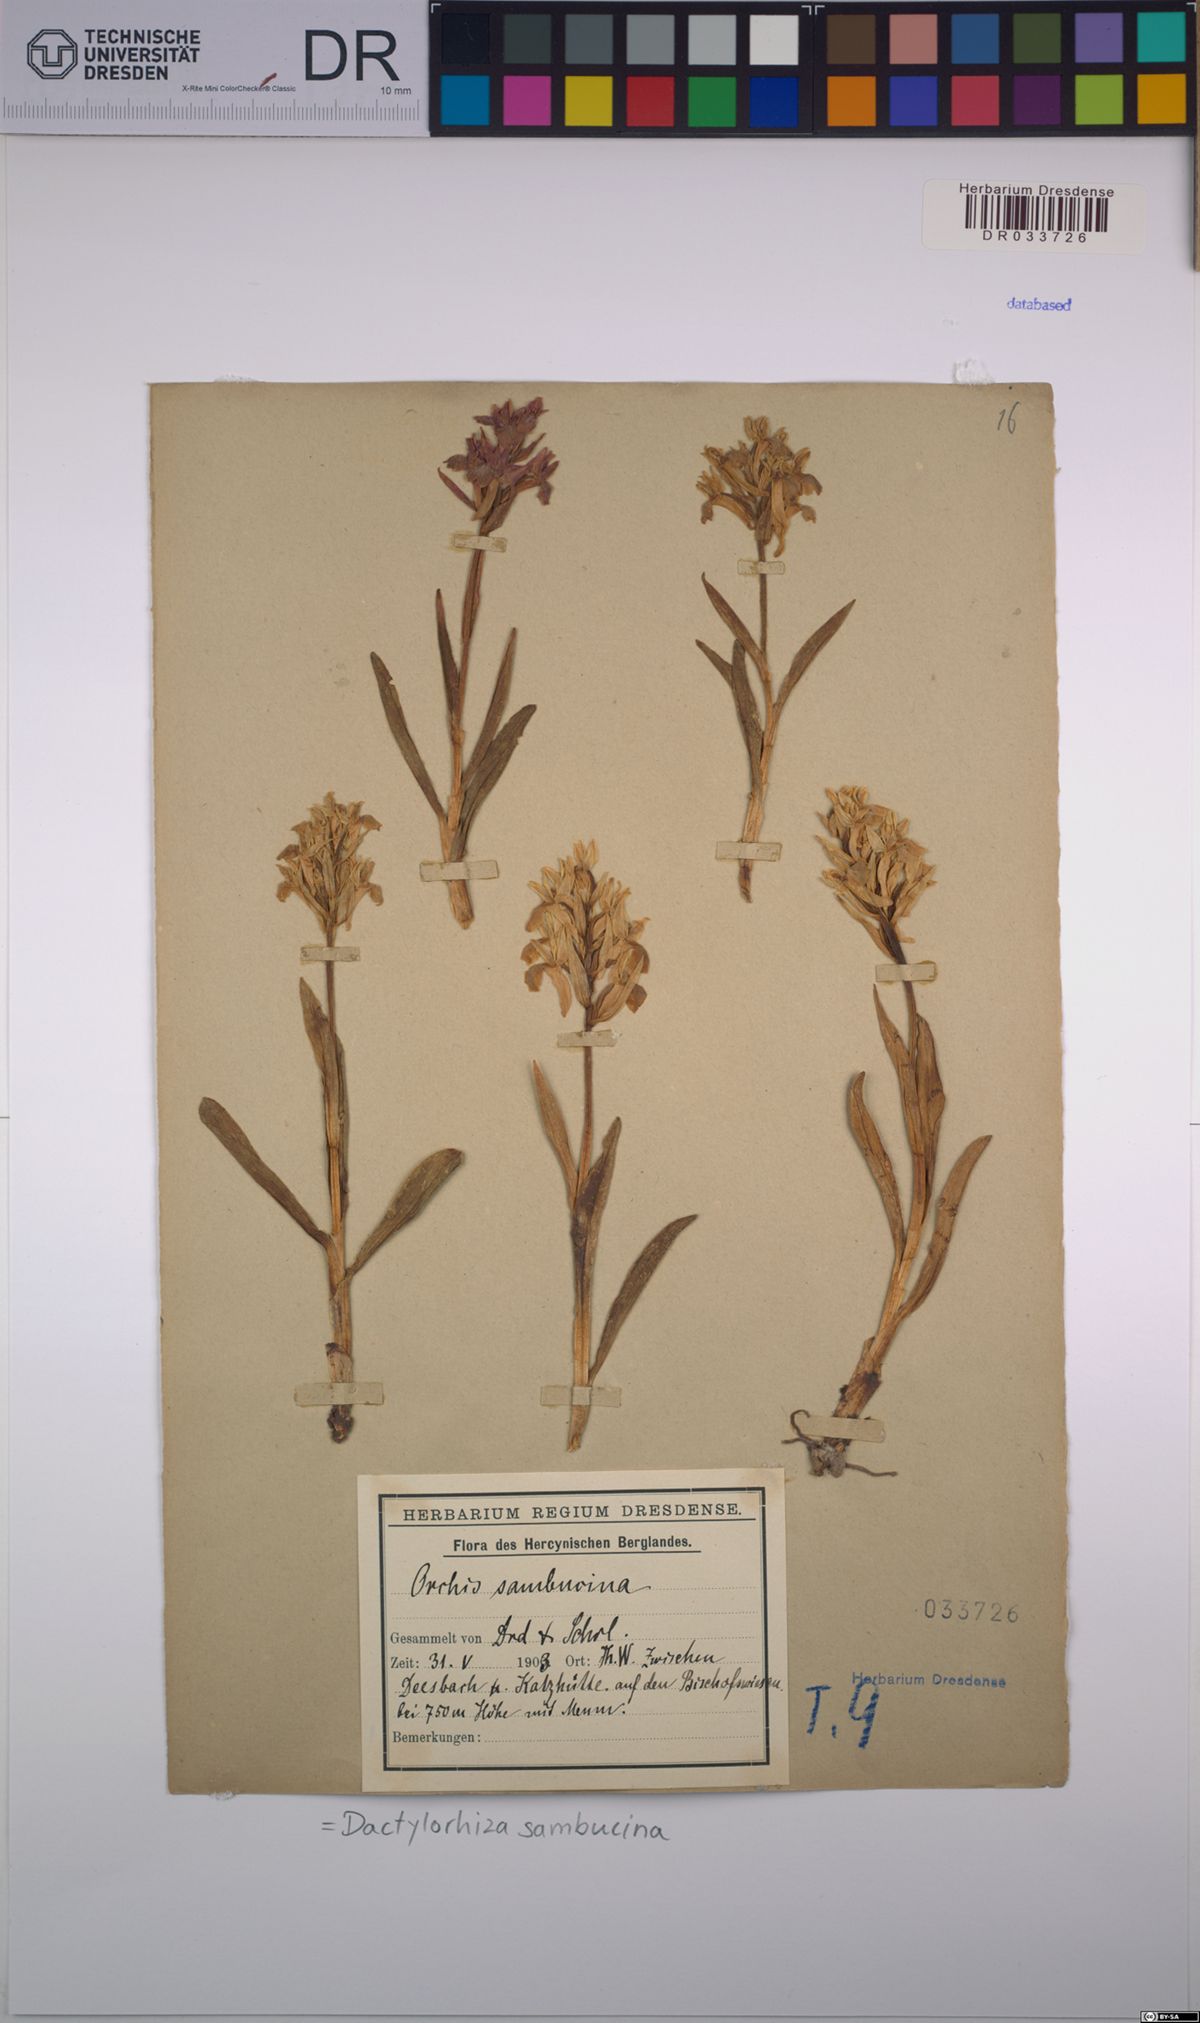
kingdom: Plantae
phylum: Tracheophyta
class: Liliopsida
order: Asparagales
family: Orchidaceae
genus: Dactylorhiza
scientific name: Dactylorhiza sambucina
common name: Elder-flowered orchid
